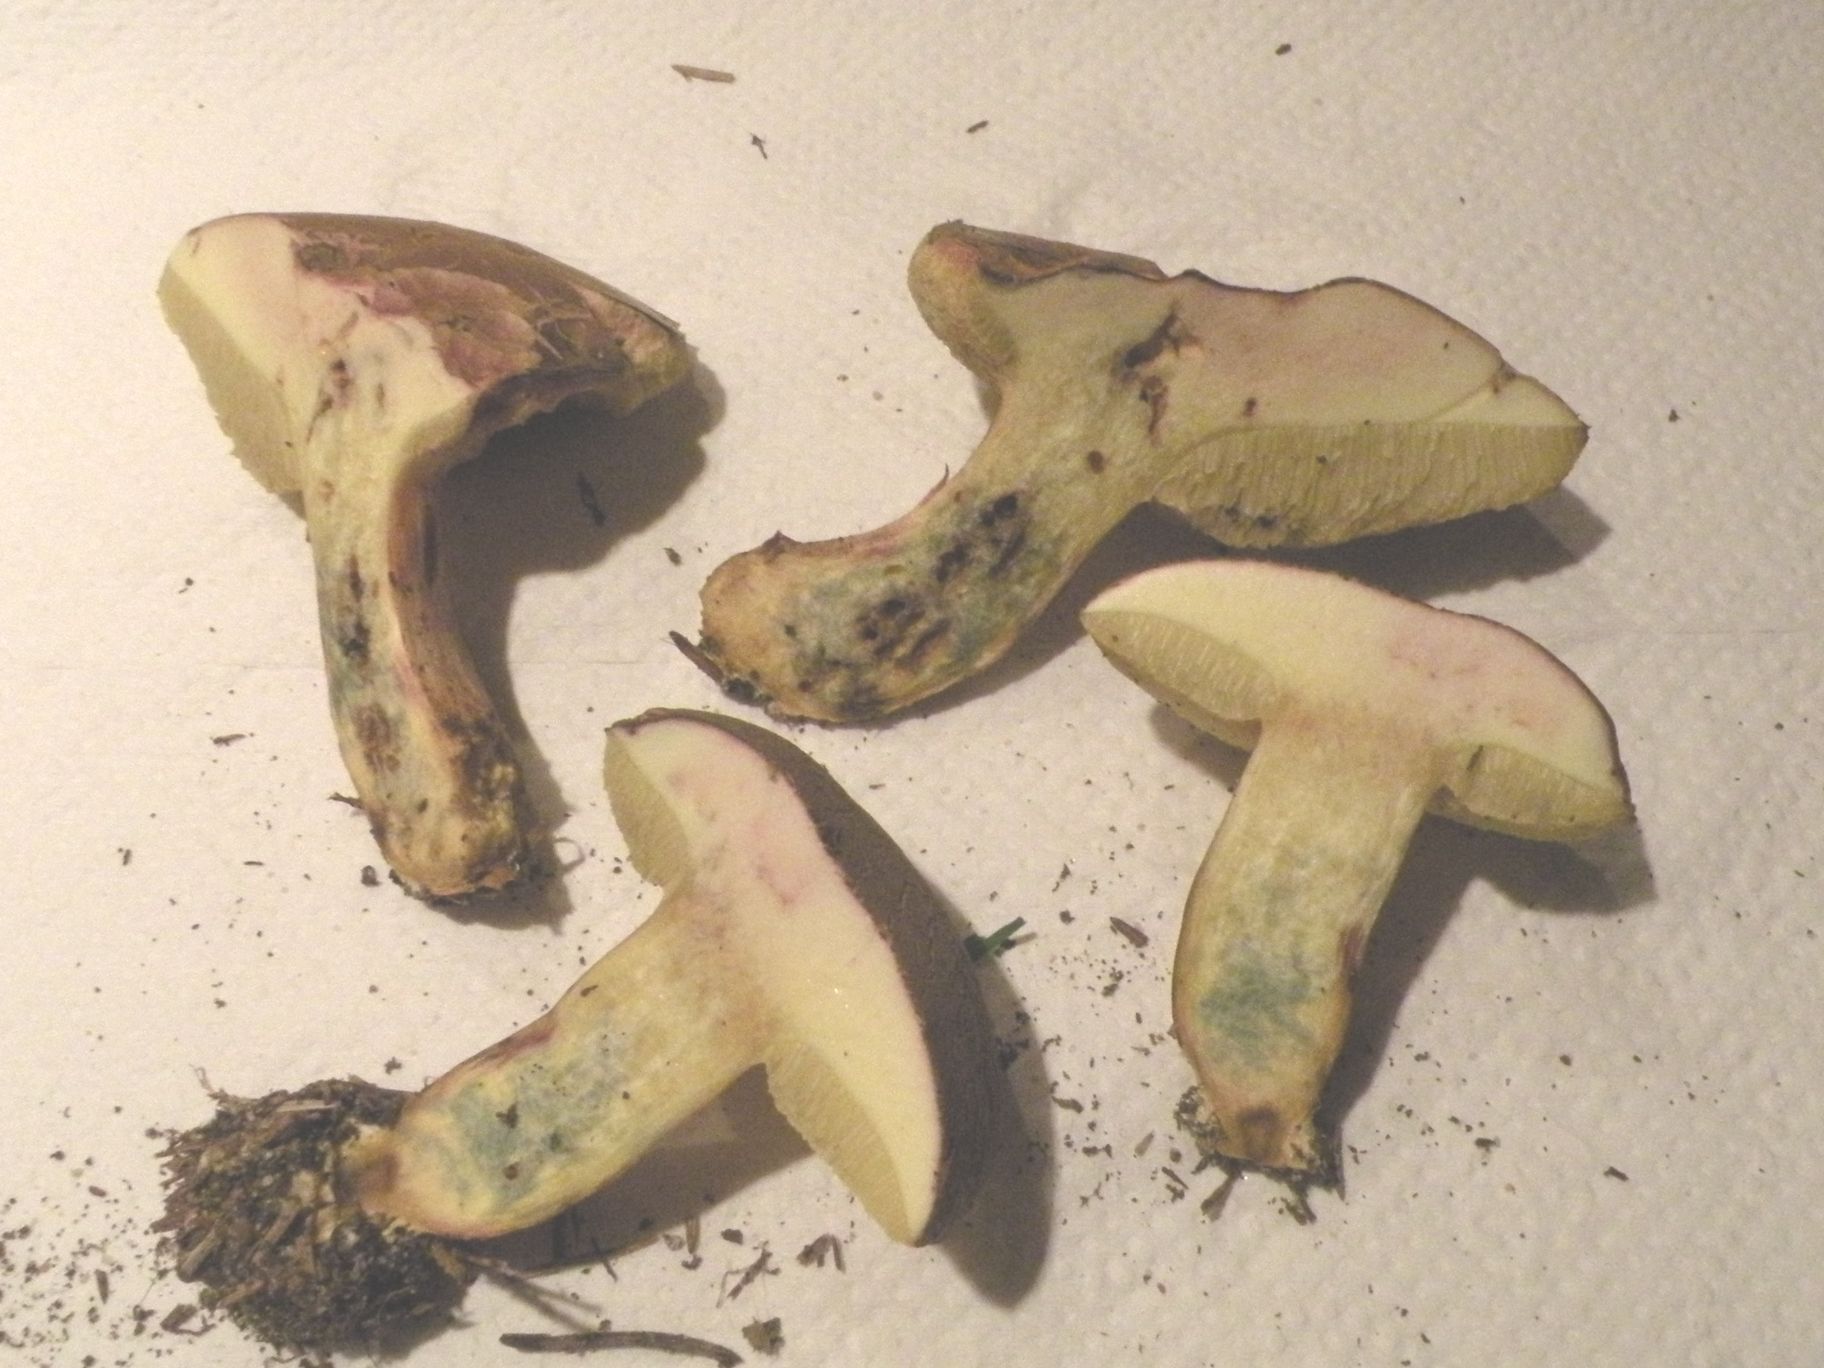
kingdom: Fungi
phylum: Basidiomycota
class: Agaricomycetes
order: Boletales
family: Boletaceae
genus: Xerocomellus
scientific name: Xerocomellus cisalpinus
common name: finsprukken rørhat
